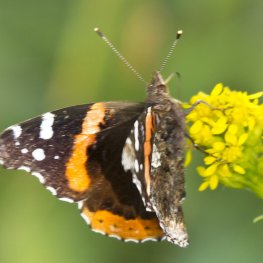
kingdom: Animalia
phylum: Arthropoda
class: Insecta
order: Lepidoptera
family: Nymphalidae
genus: Vanessa
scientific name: Vanessa atalanta
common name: Red Admiral
